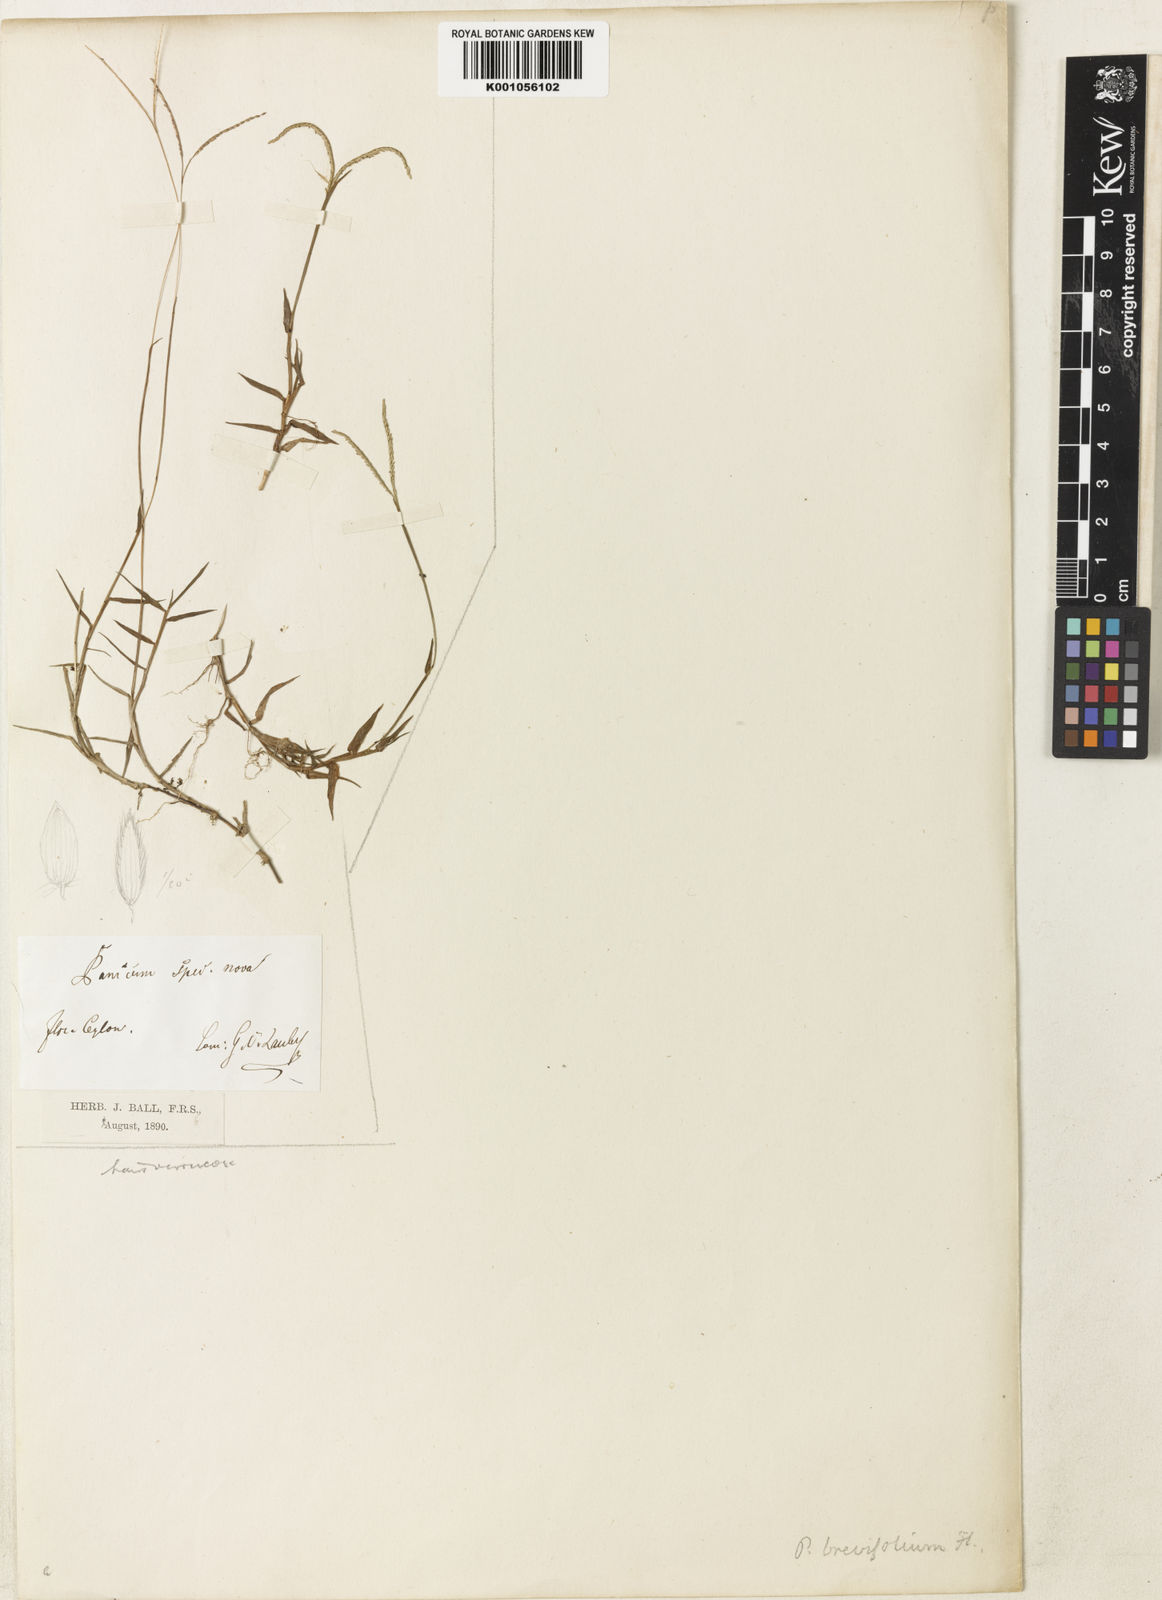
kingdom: Plantae
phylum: Tracheophyta
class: Liliopsida
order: Poales
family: Poaceae
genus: Digitaria
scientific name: Digitaria longiflora
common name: Wire crabgrass
